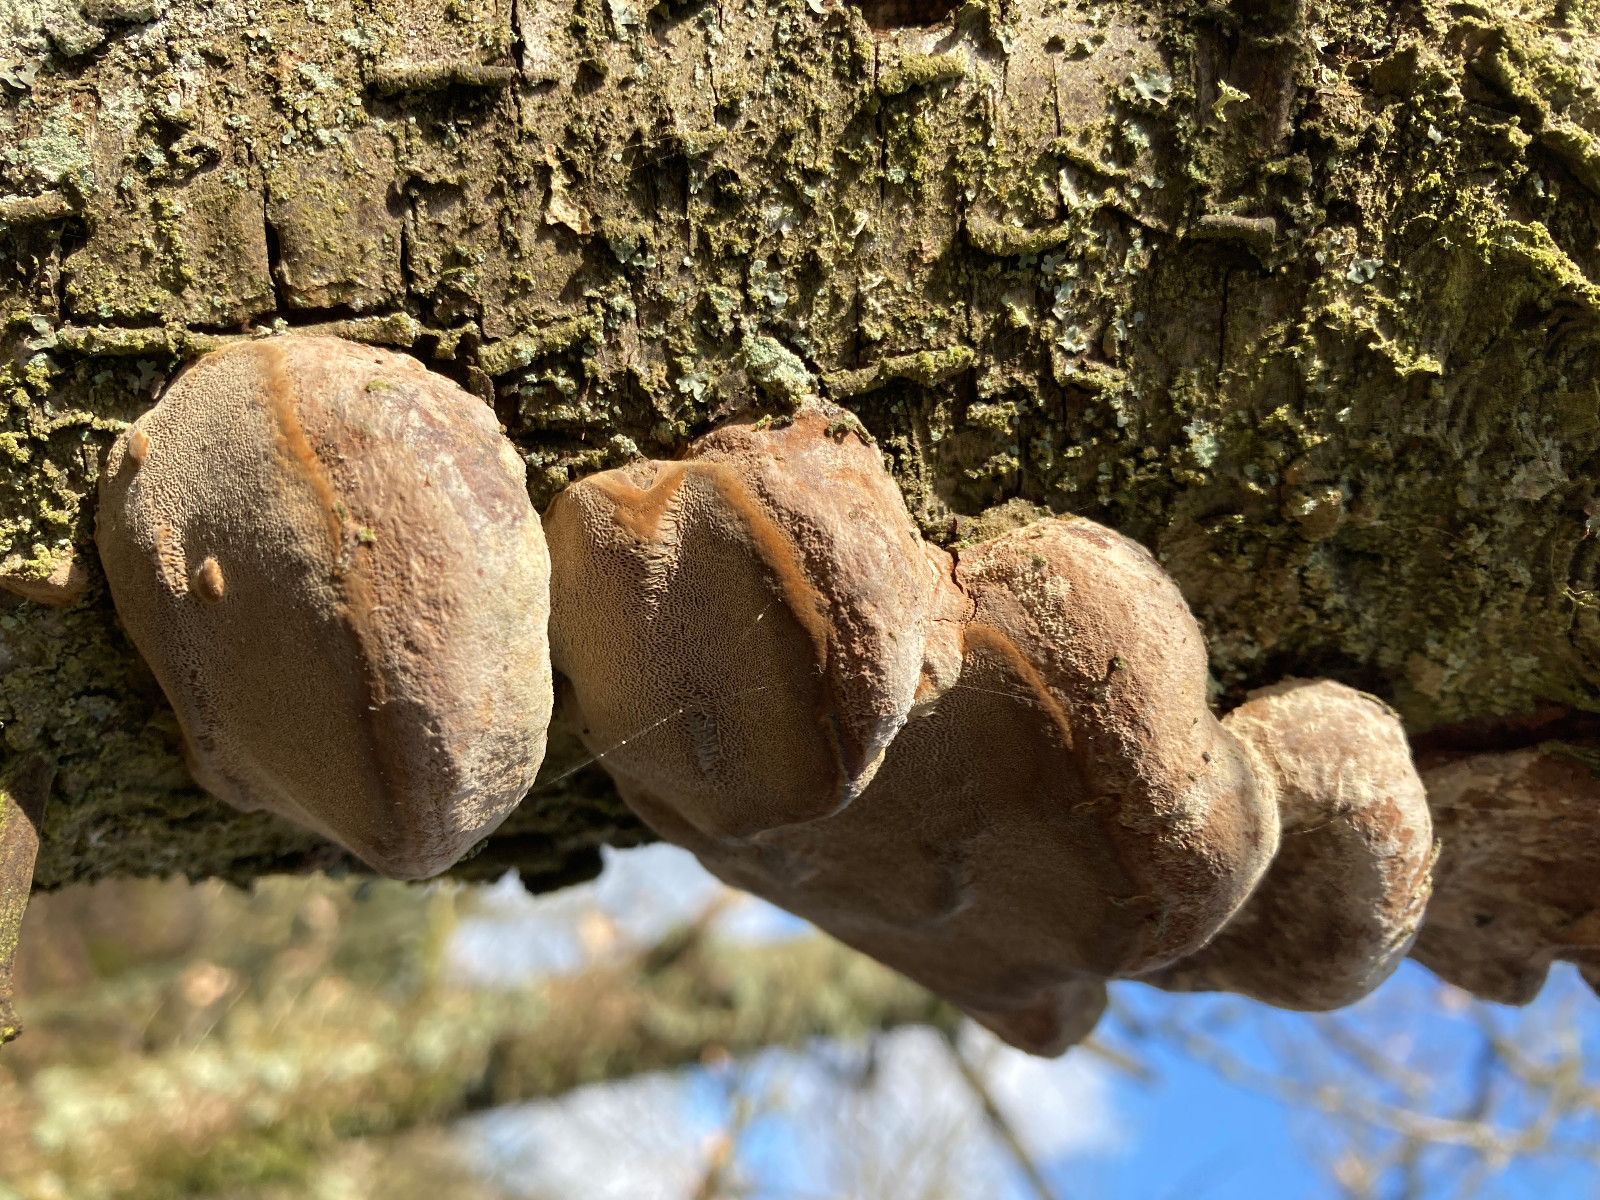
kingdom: Fungi
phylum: Basidiomycota
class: Agaricomycetes
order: Hymenochaetales
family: Hymenochaetaceae
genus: Phellinus
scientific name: Phellinus pomaceus
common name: blomme-ildporesvamp
